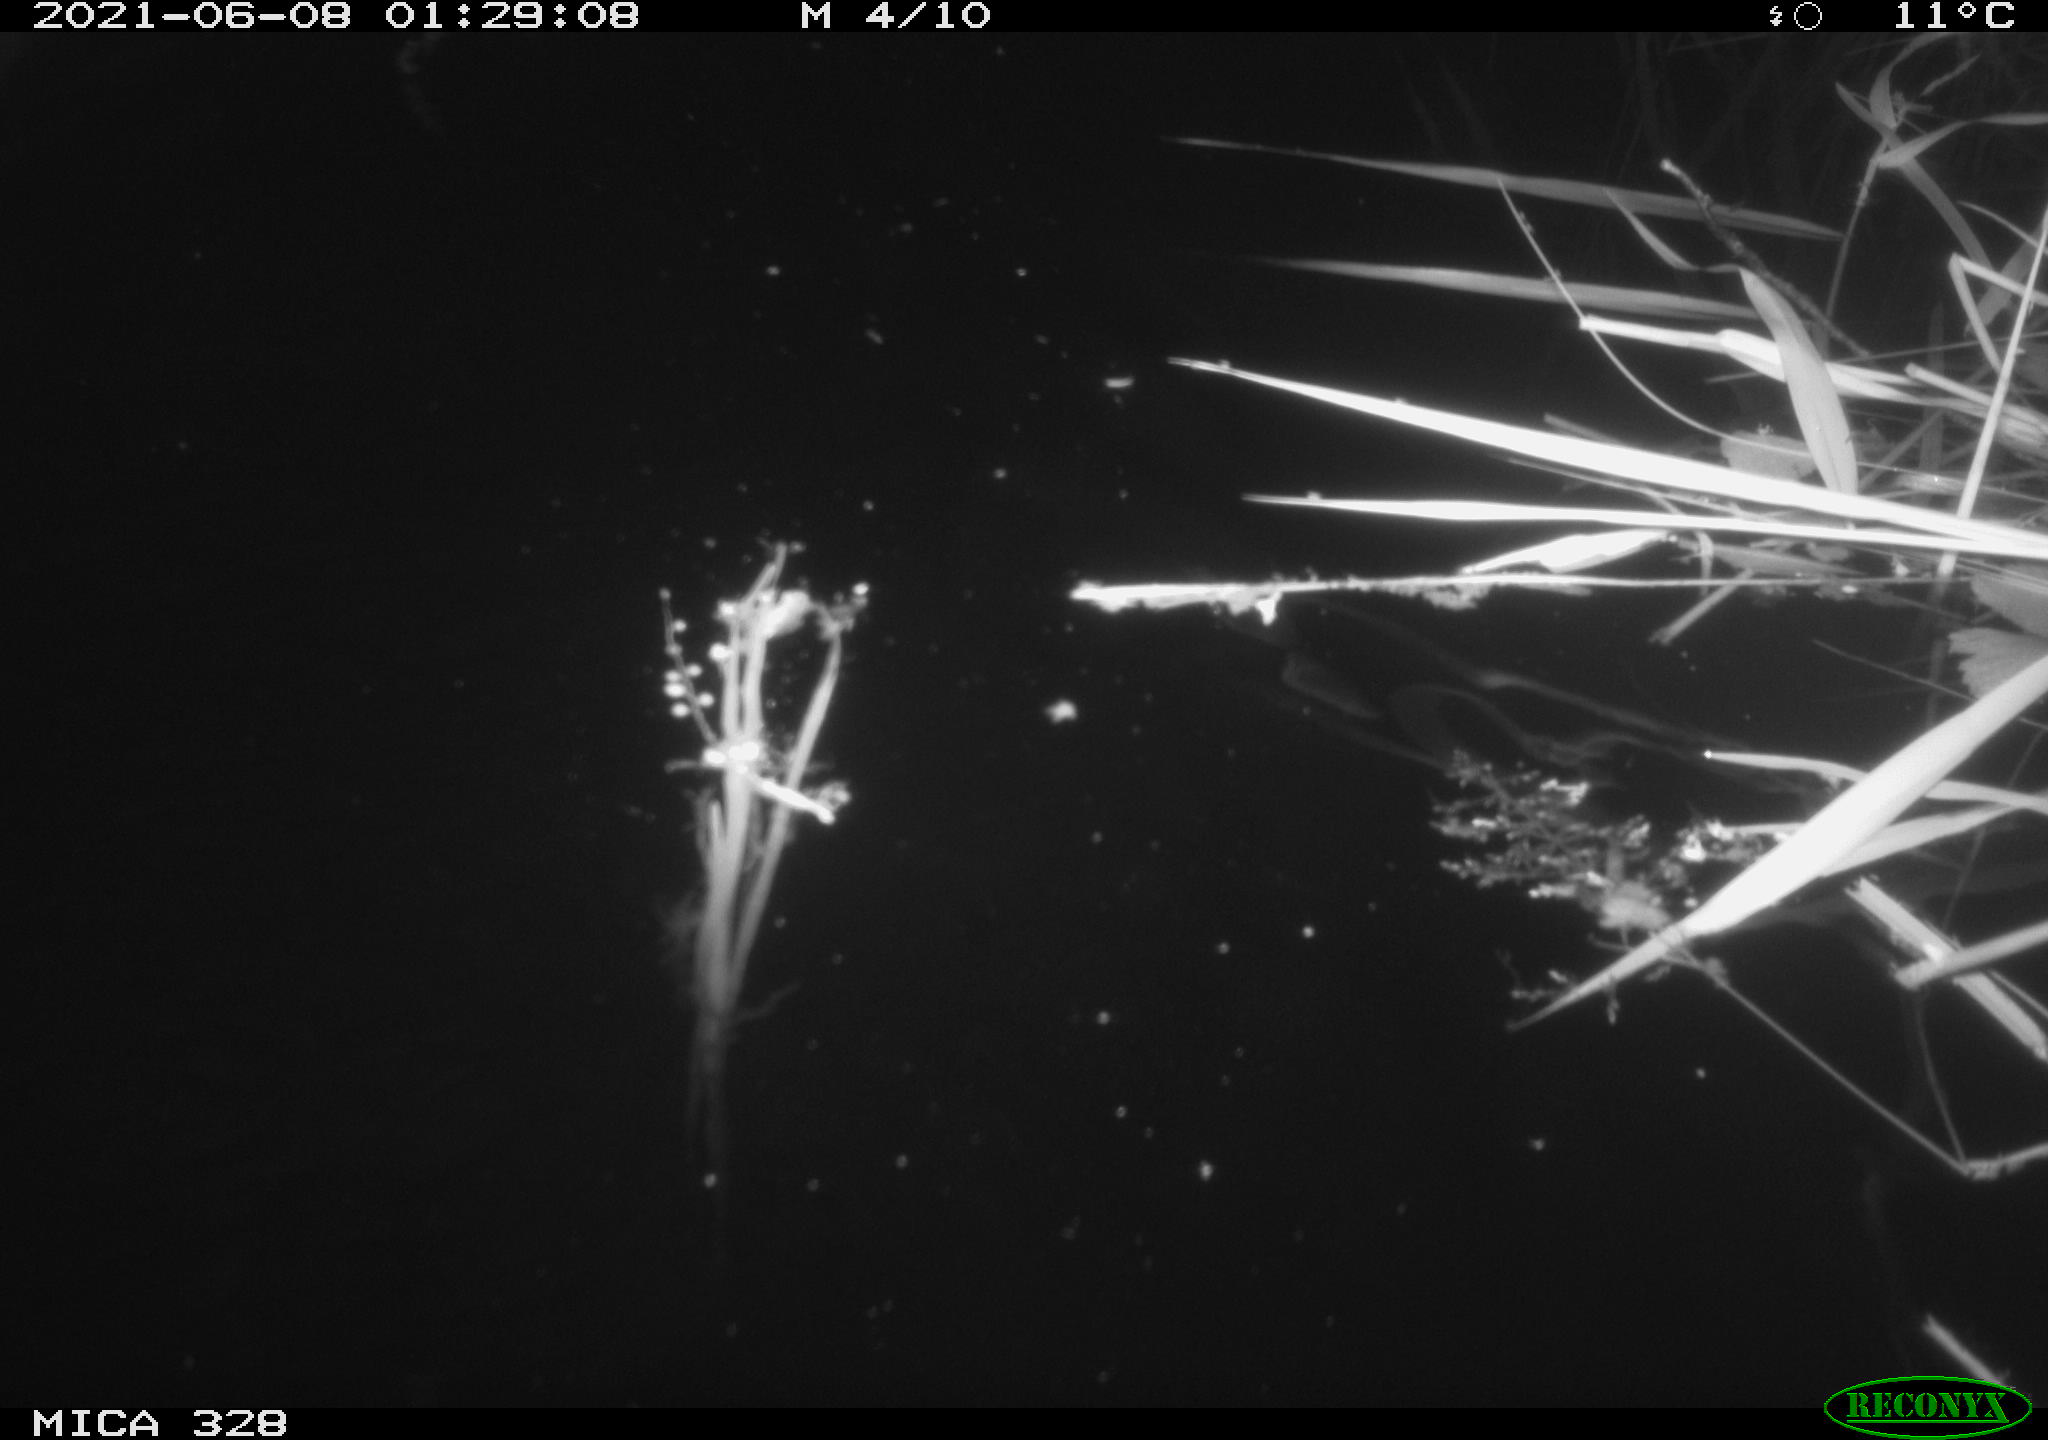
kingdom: Animalia
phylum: Chordata
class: Mammalia
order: Rodentia
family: Cricetidae
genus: Ondatra
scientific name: Ondatra zibethicus
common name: Muskrat
